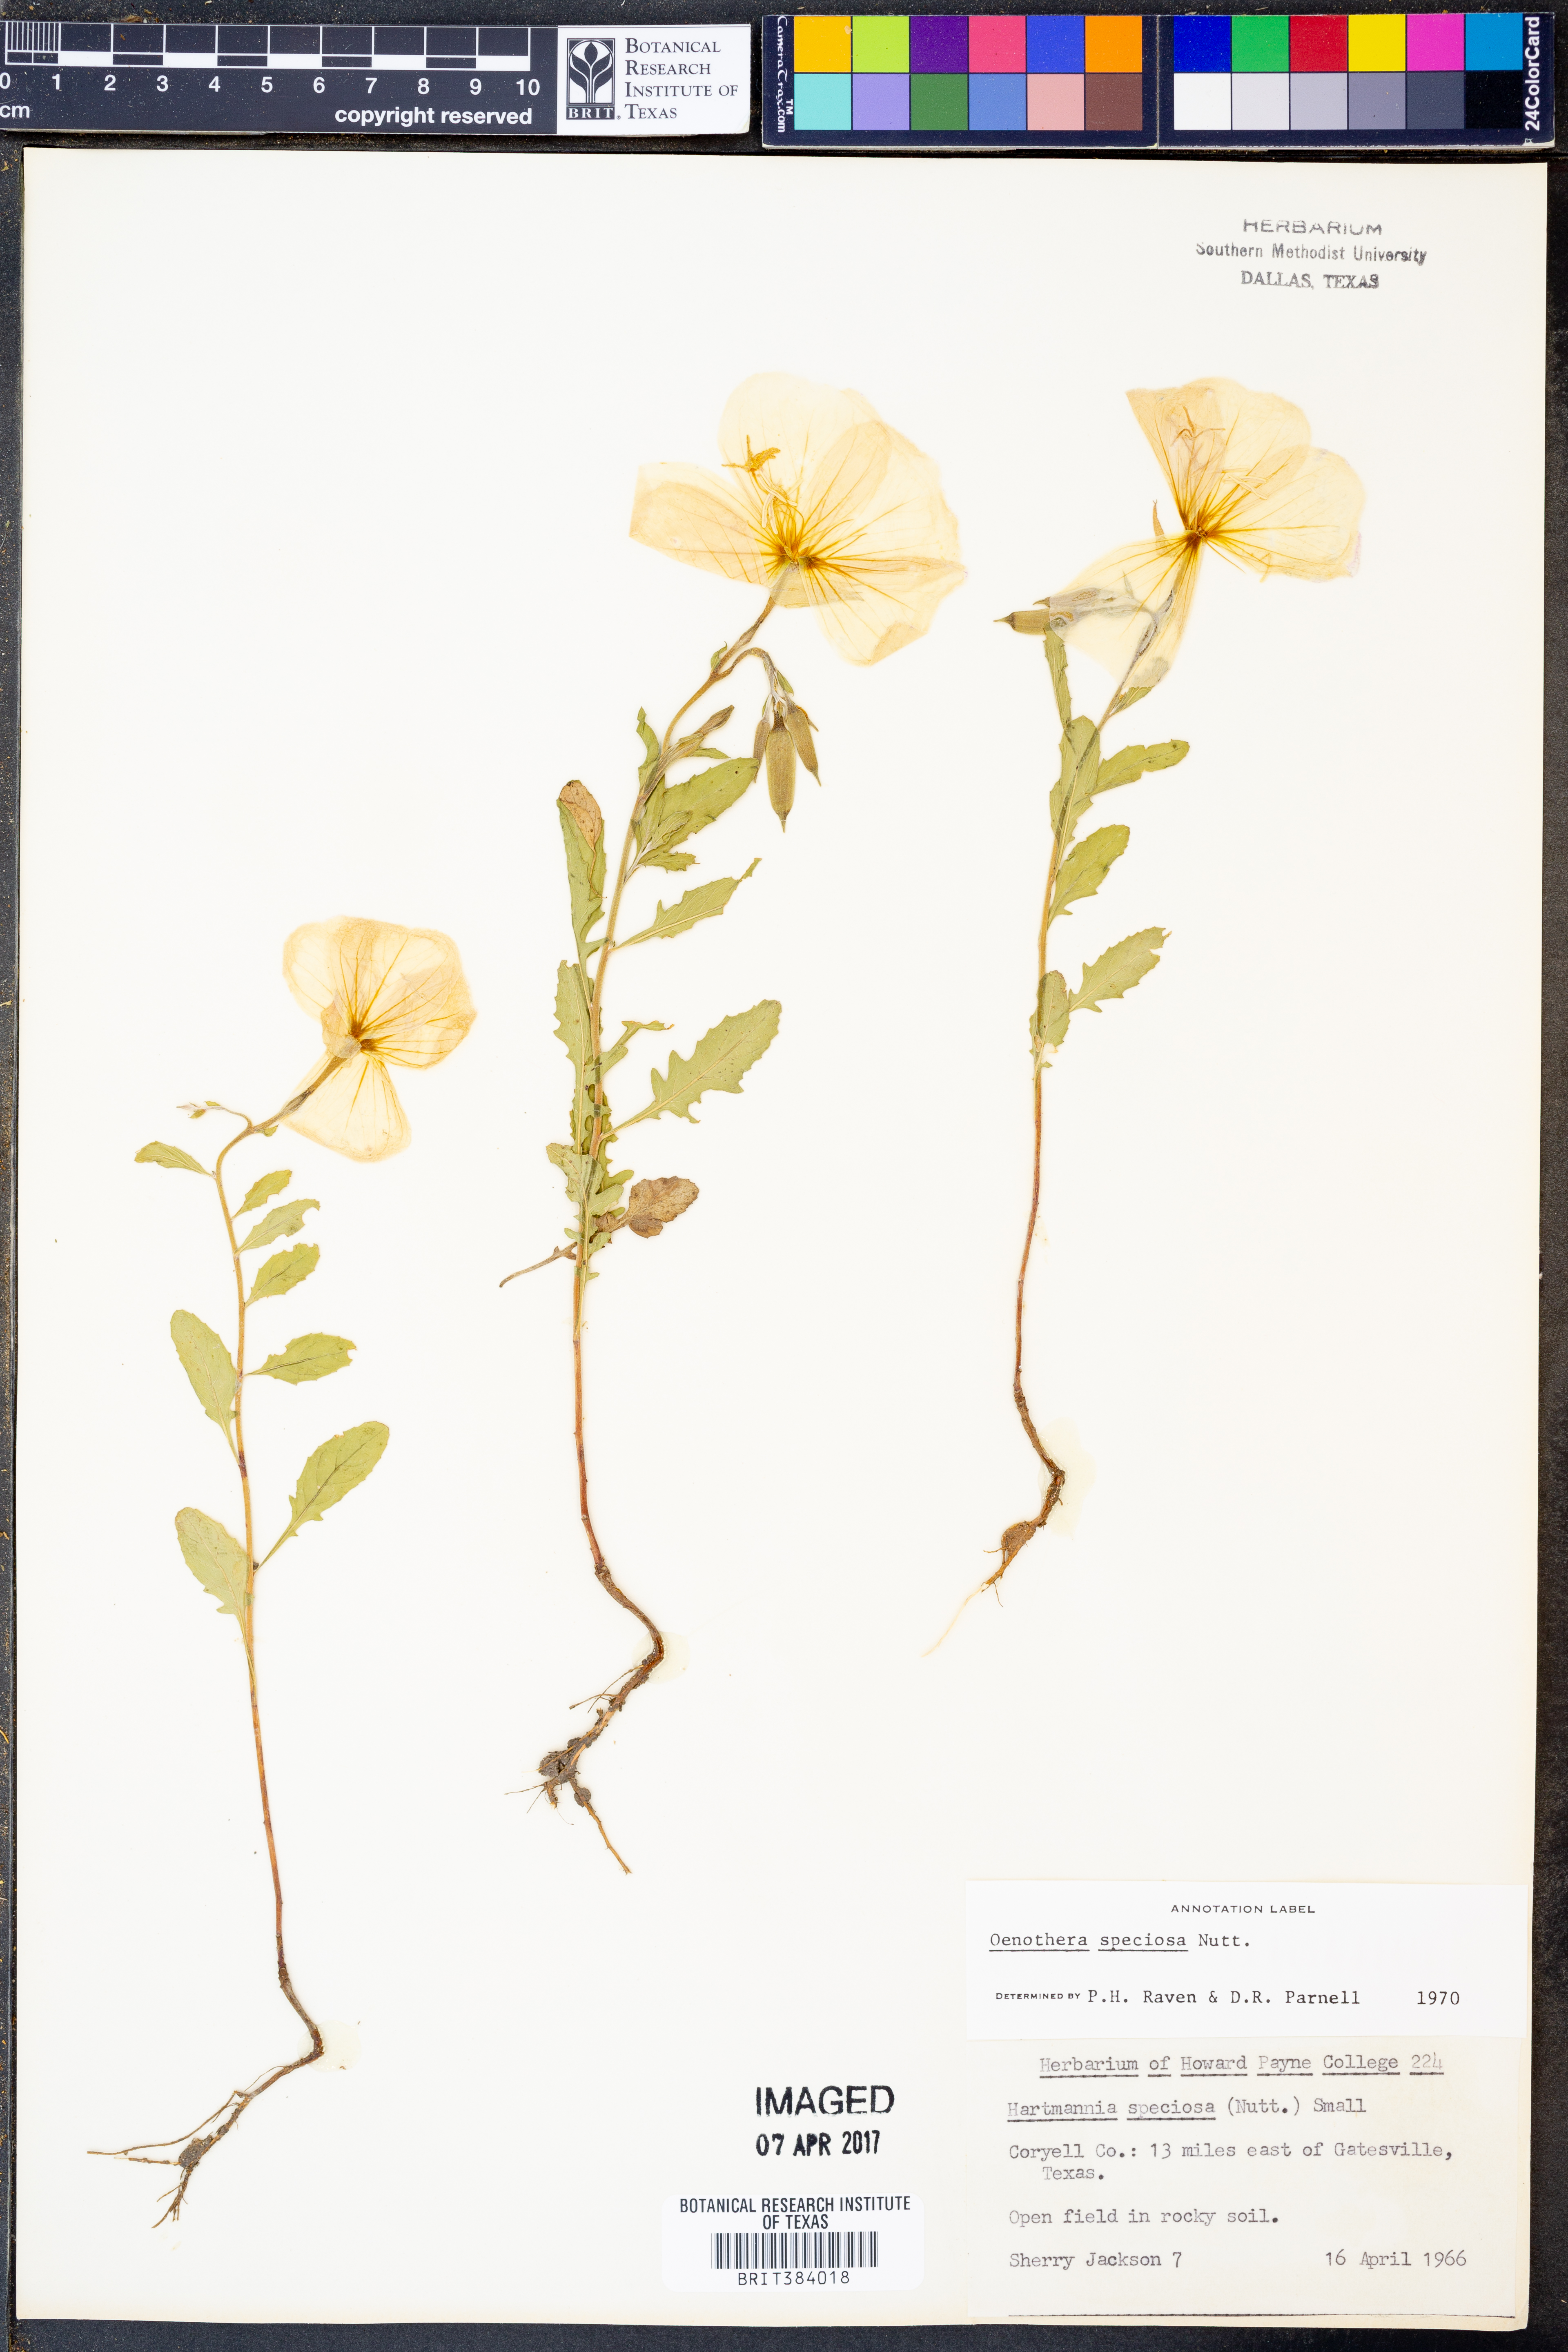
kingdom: Plantae
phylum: Tracheophyta
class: Magnoliopsida
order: Myrtales
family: Onagraceae
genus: Oenothera
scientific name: Oenothera speciosa
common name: White evening-primrose
